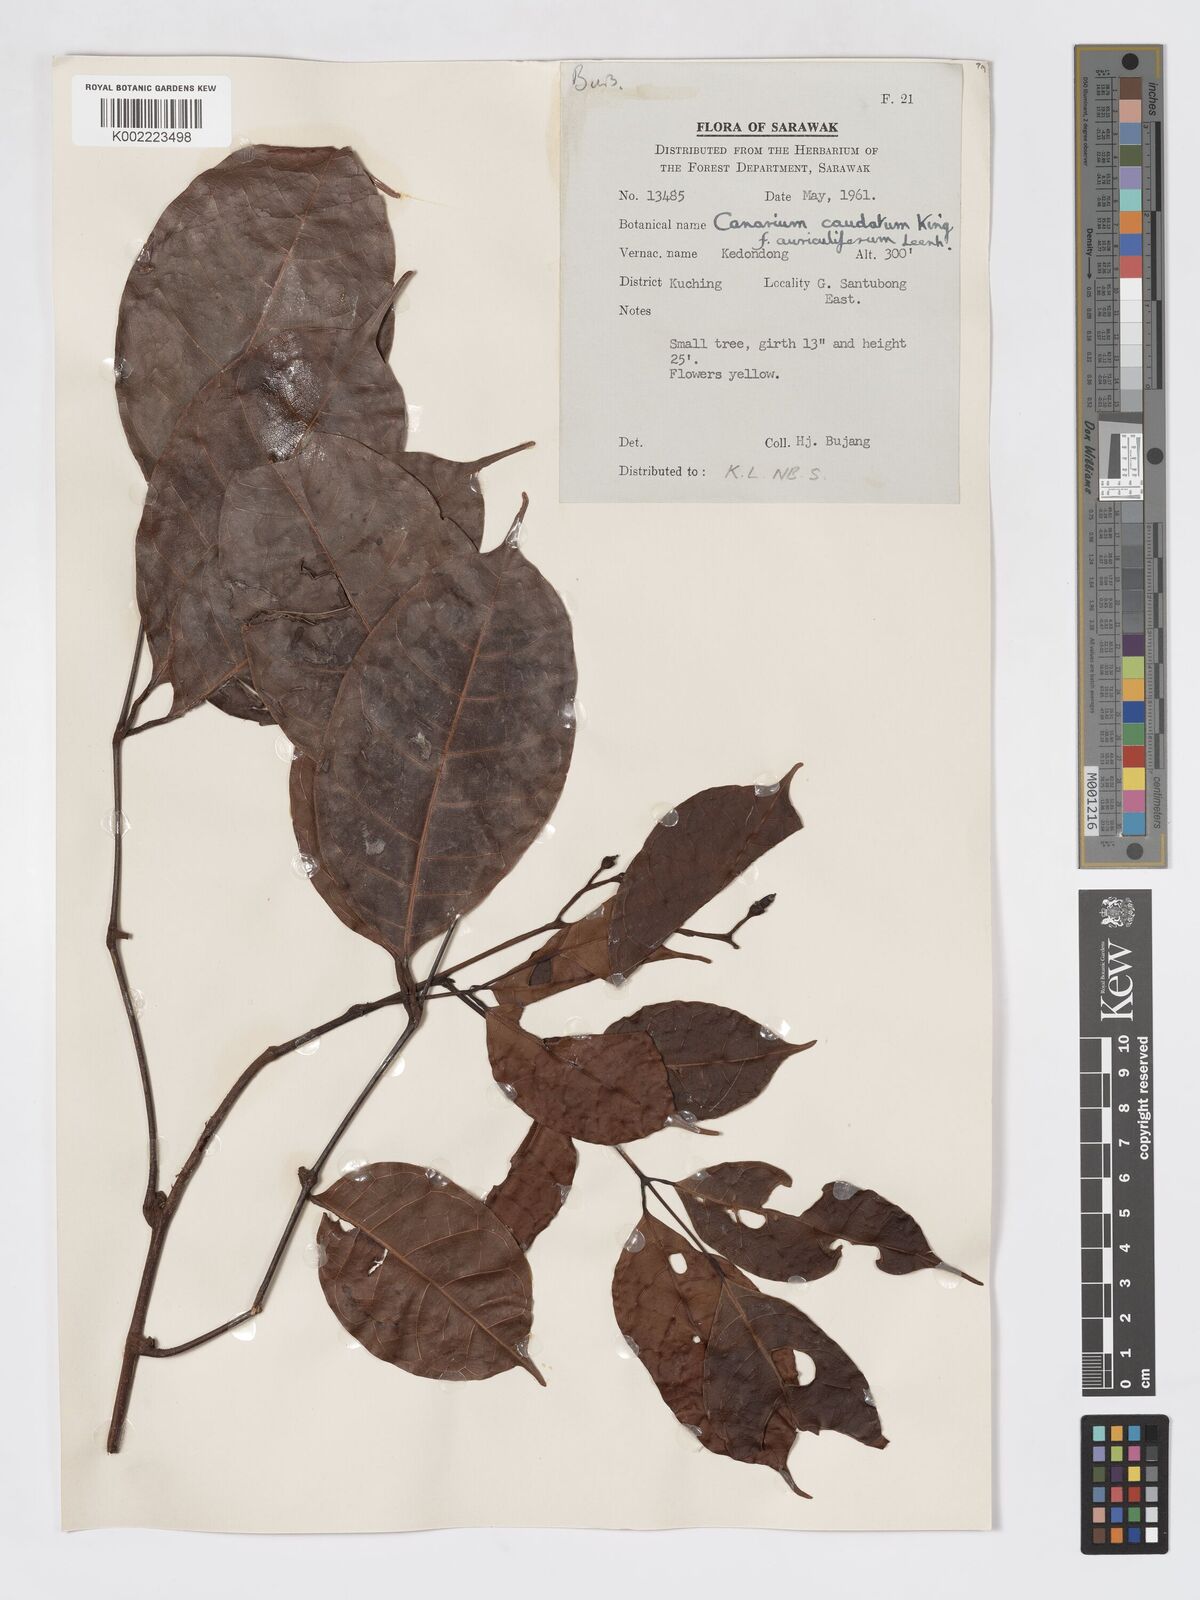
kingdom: Plantae
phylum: Tracheophyta
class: Magnoliopsida
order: Sapindales
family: Burseraceae
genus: Canarium
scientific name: Canarium caudatum
